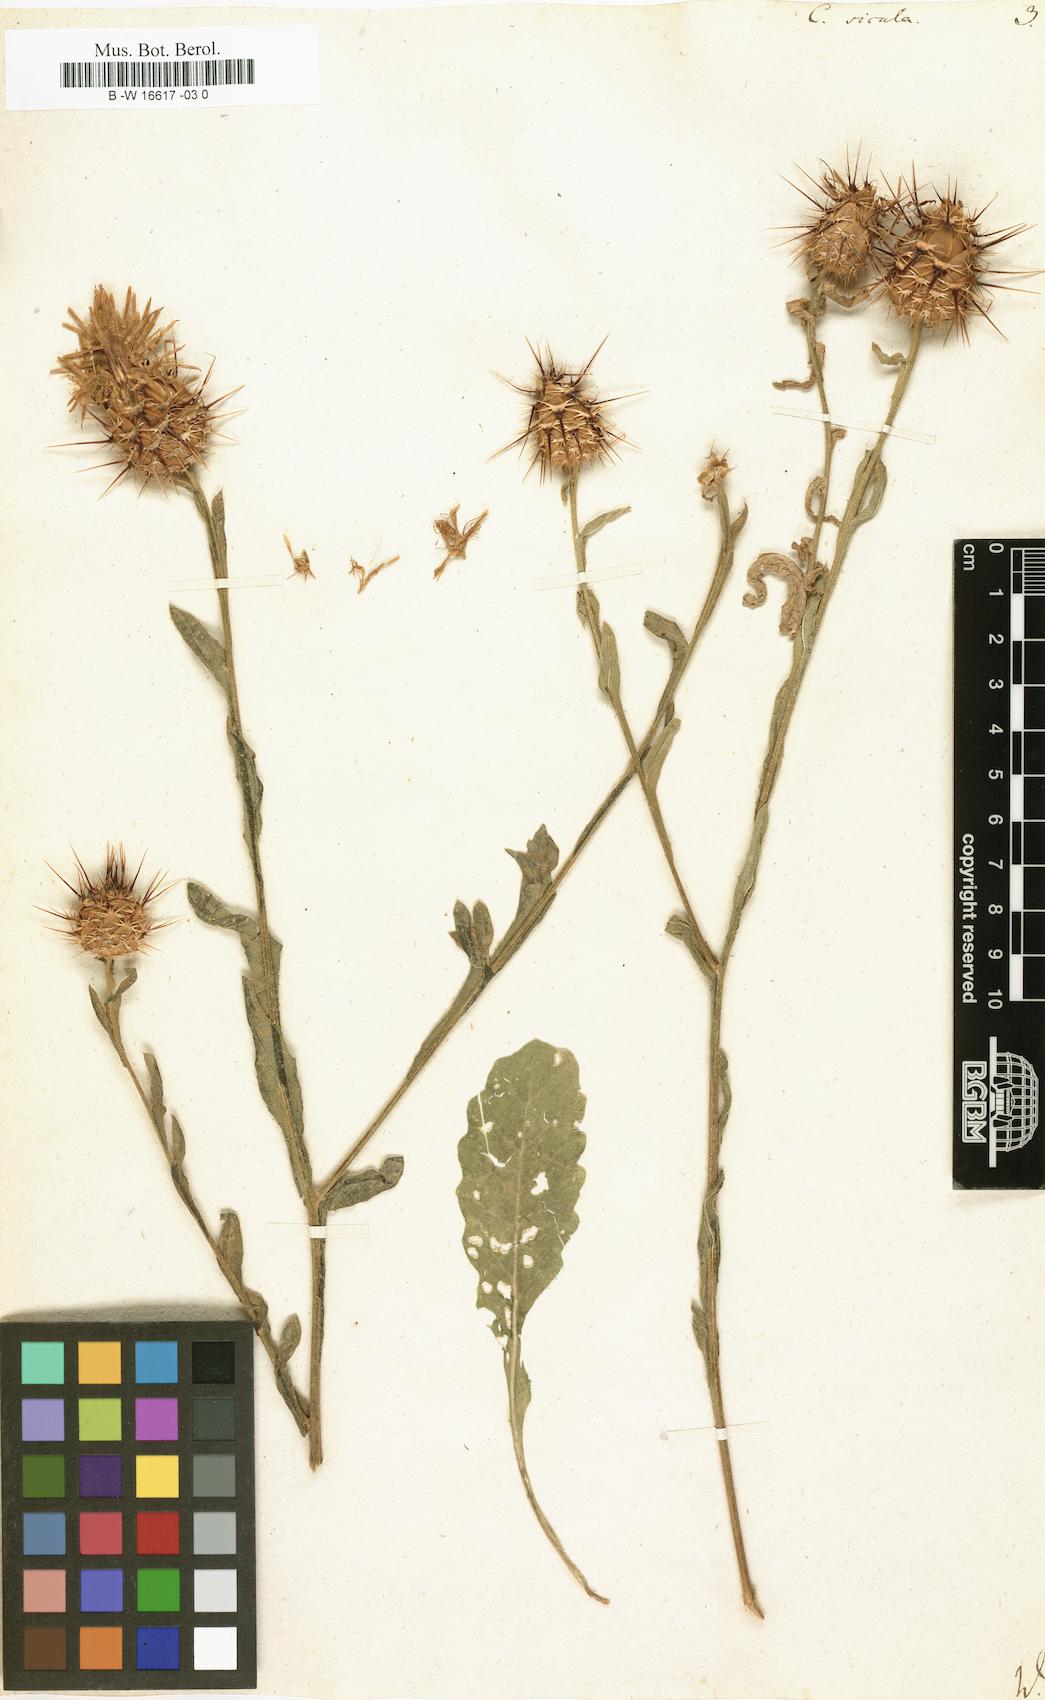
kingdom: Plantae
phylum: Tracheophyta
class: Magnoliopsida
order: Asterales
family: Asteraceae
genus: Centaurea
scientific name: Centaurea sicula
